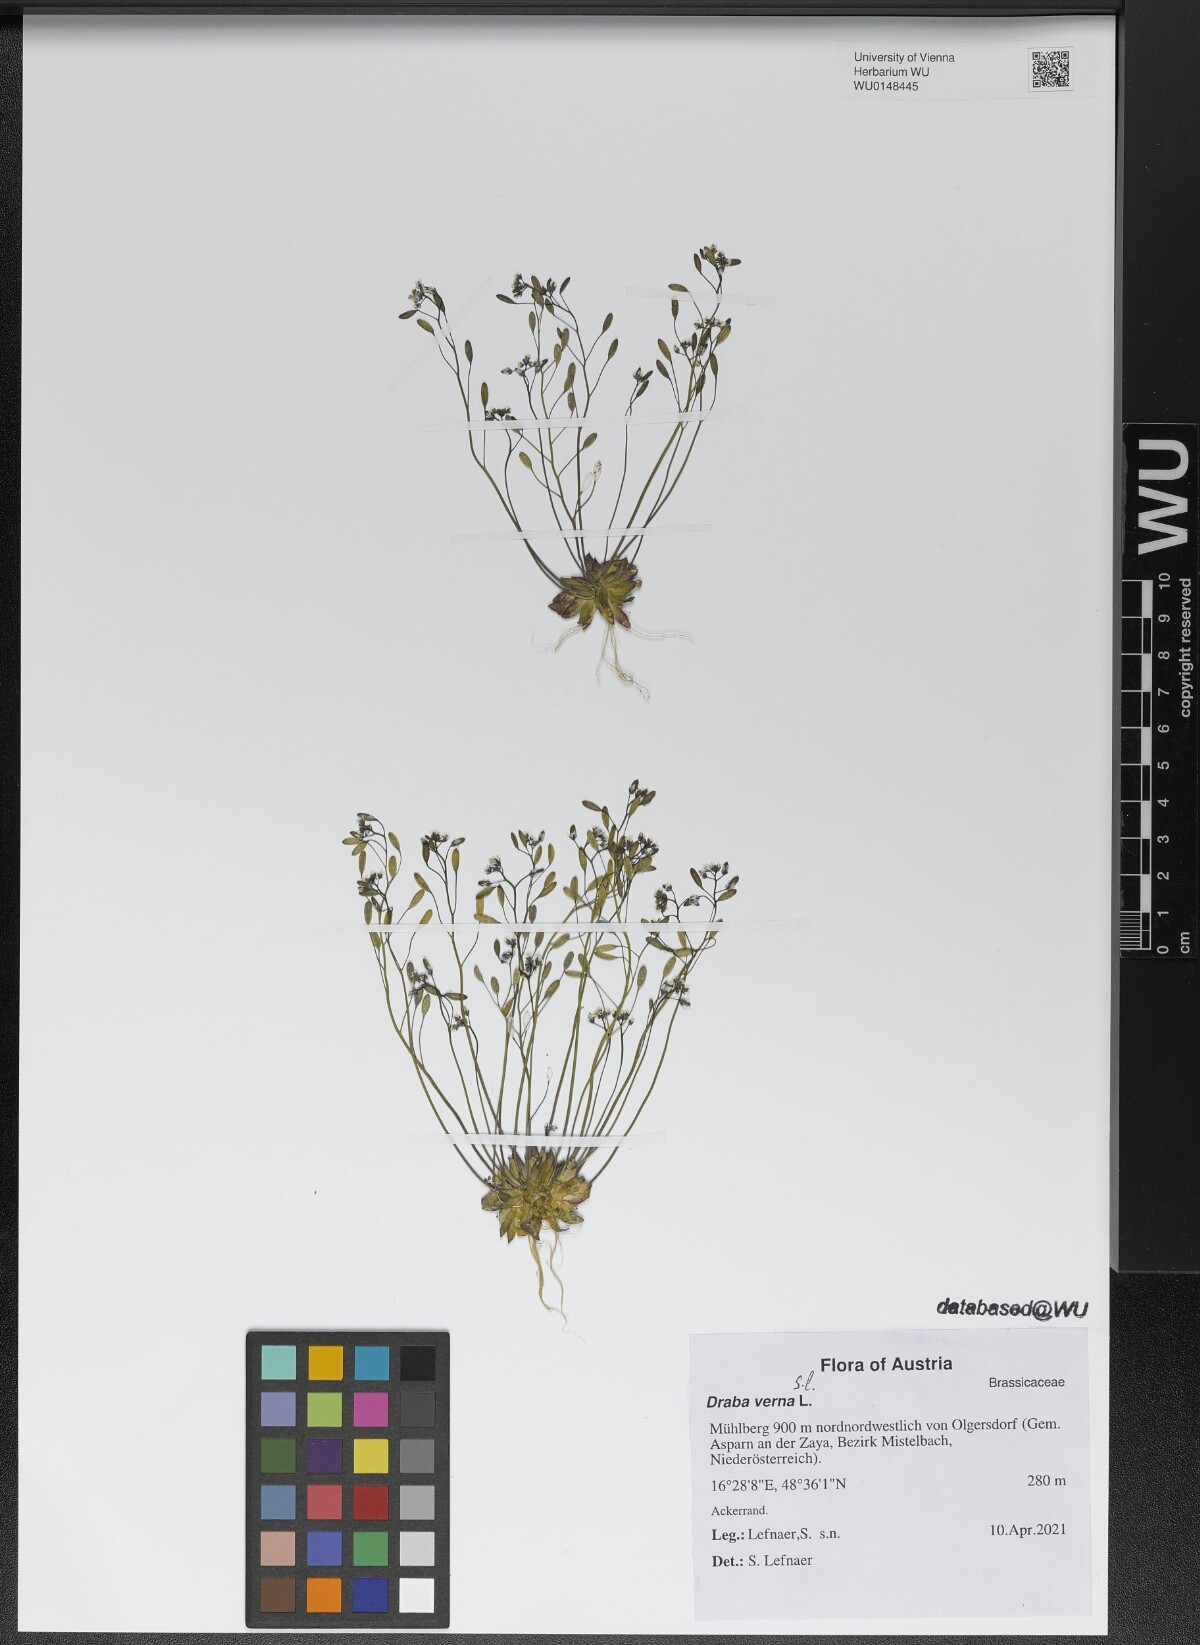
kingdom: Plantae
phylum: Tracheophyta
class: Magnoliopsida
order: Brassicales
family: Brassicaceae
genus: Draba
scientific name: Draba verna
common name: Spring draba
